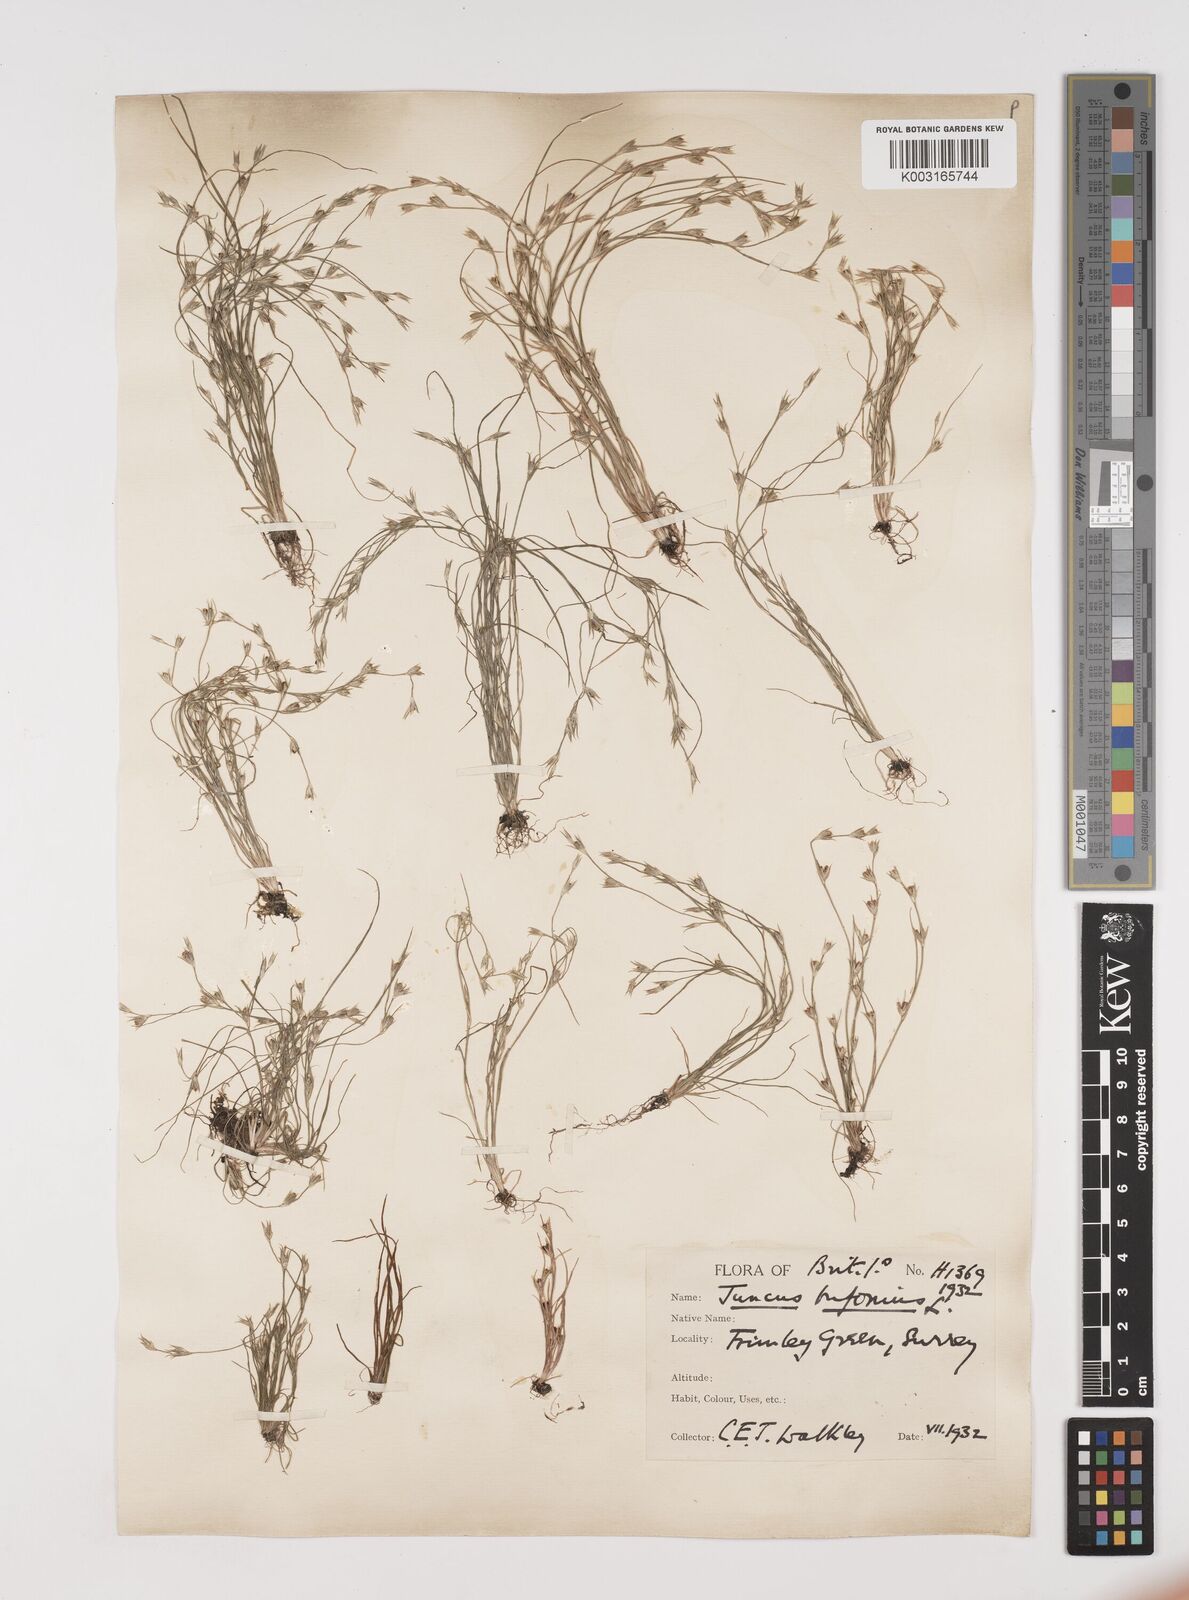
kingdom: Plantae
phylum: Tracheophyta
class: Liliopsida
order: Poales
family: Juncaceae
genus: Juncus
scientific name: Juncus bufonius
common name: Toad rush
